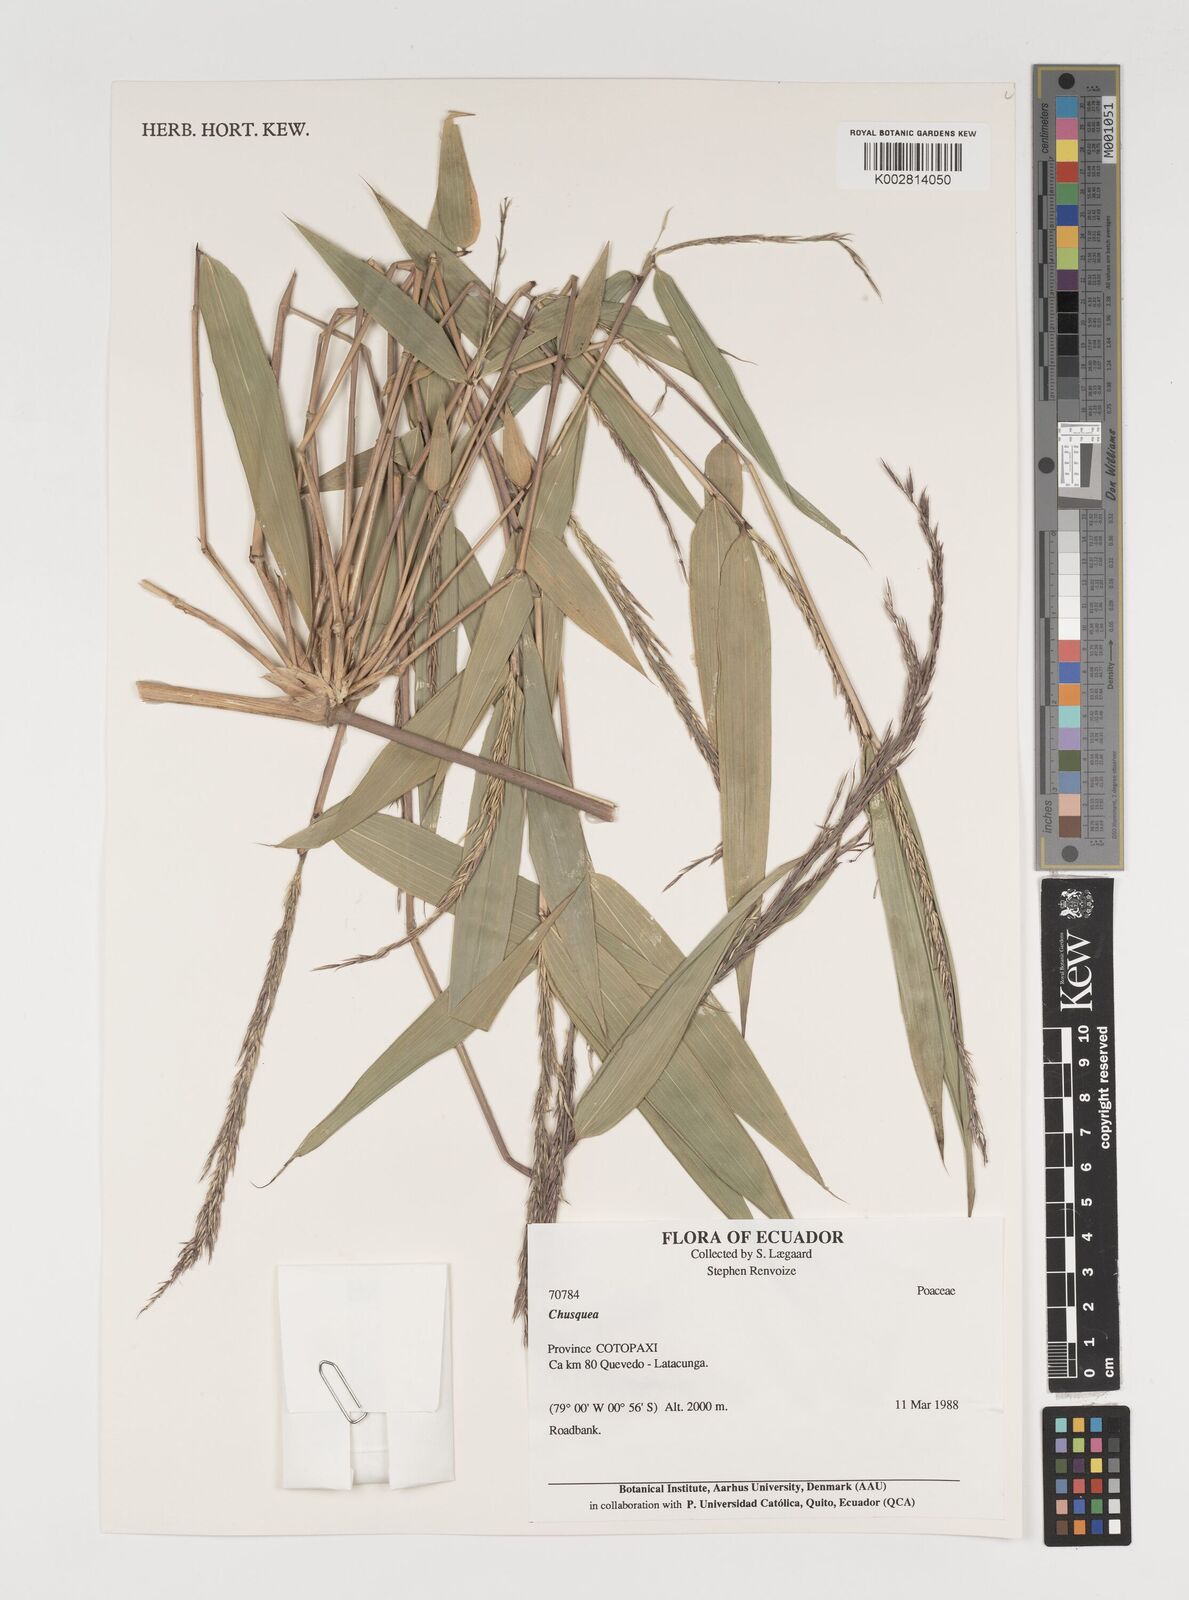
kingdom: Plantae
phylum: Tracheophyta
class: Liliopsida
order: Poales
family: Poaceae
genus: Chusquea
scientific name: Chusquea
